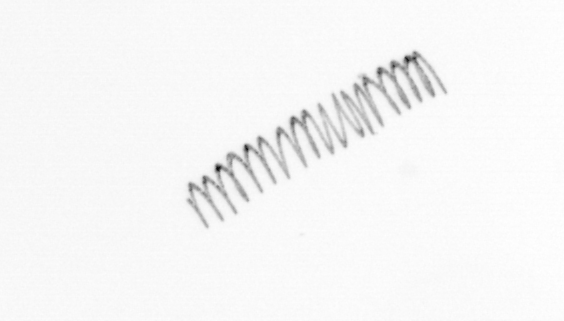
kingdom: Chromista
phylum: Ochrophyta
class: Bacillariophyceae
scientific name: Bacillariophyceae
